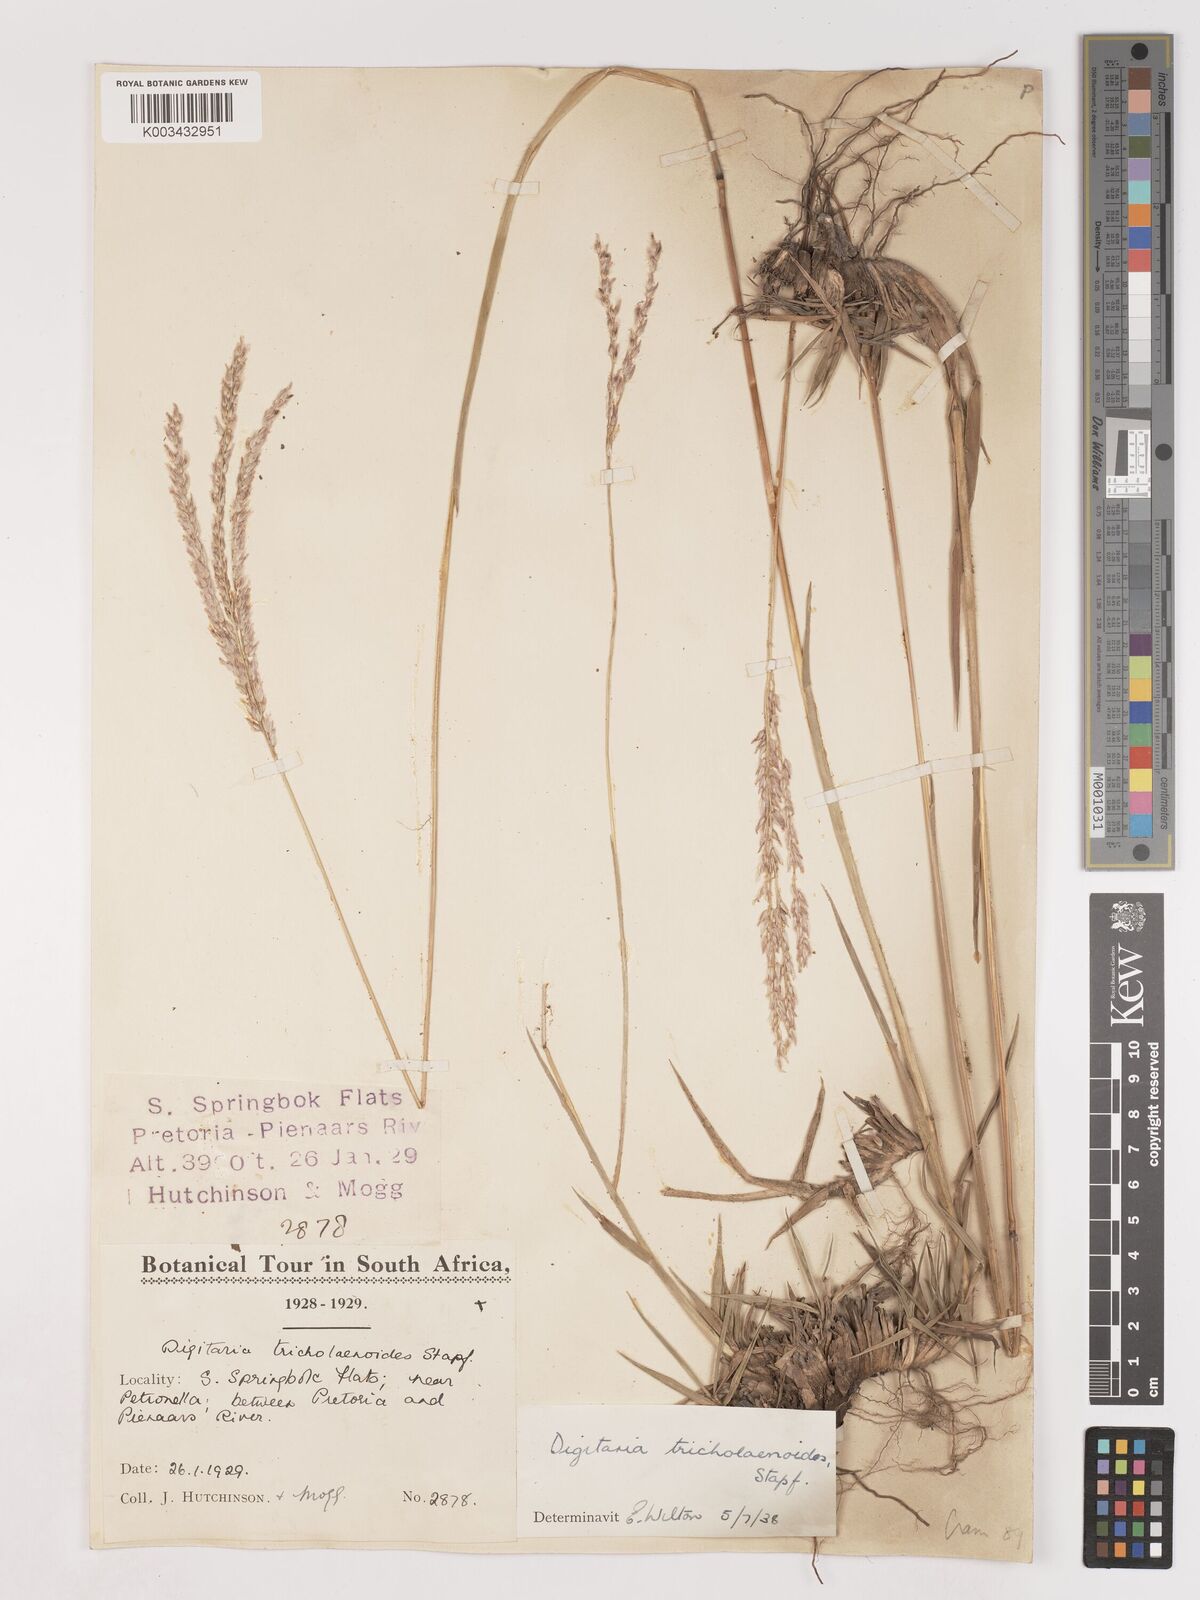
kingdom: Plantae
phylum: Tracheophyta
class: Liliopsida
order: Poales
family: Poaceae
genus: Digitaria
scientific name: Digitaria tricholaenoides
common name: Purple finger grass
